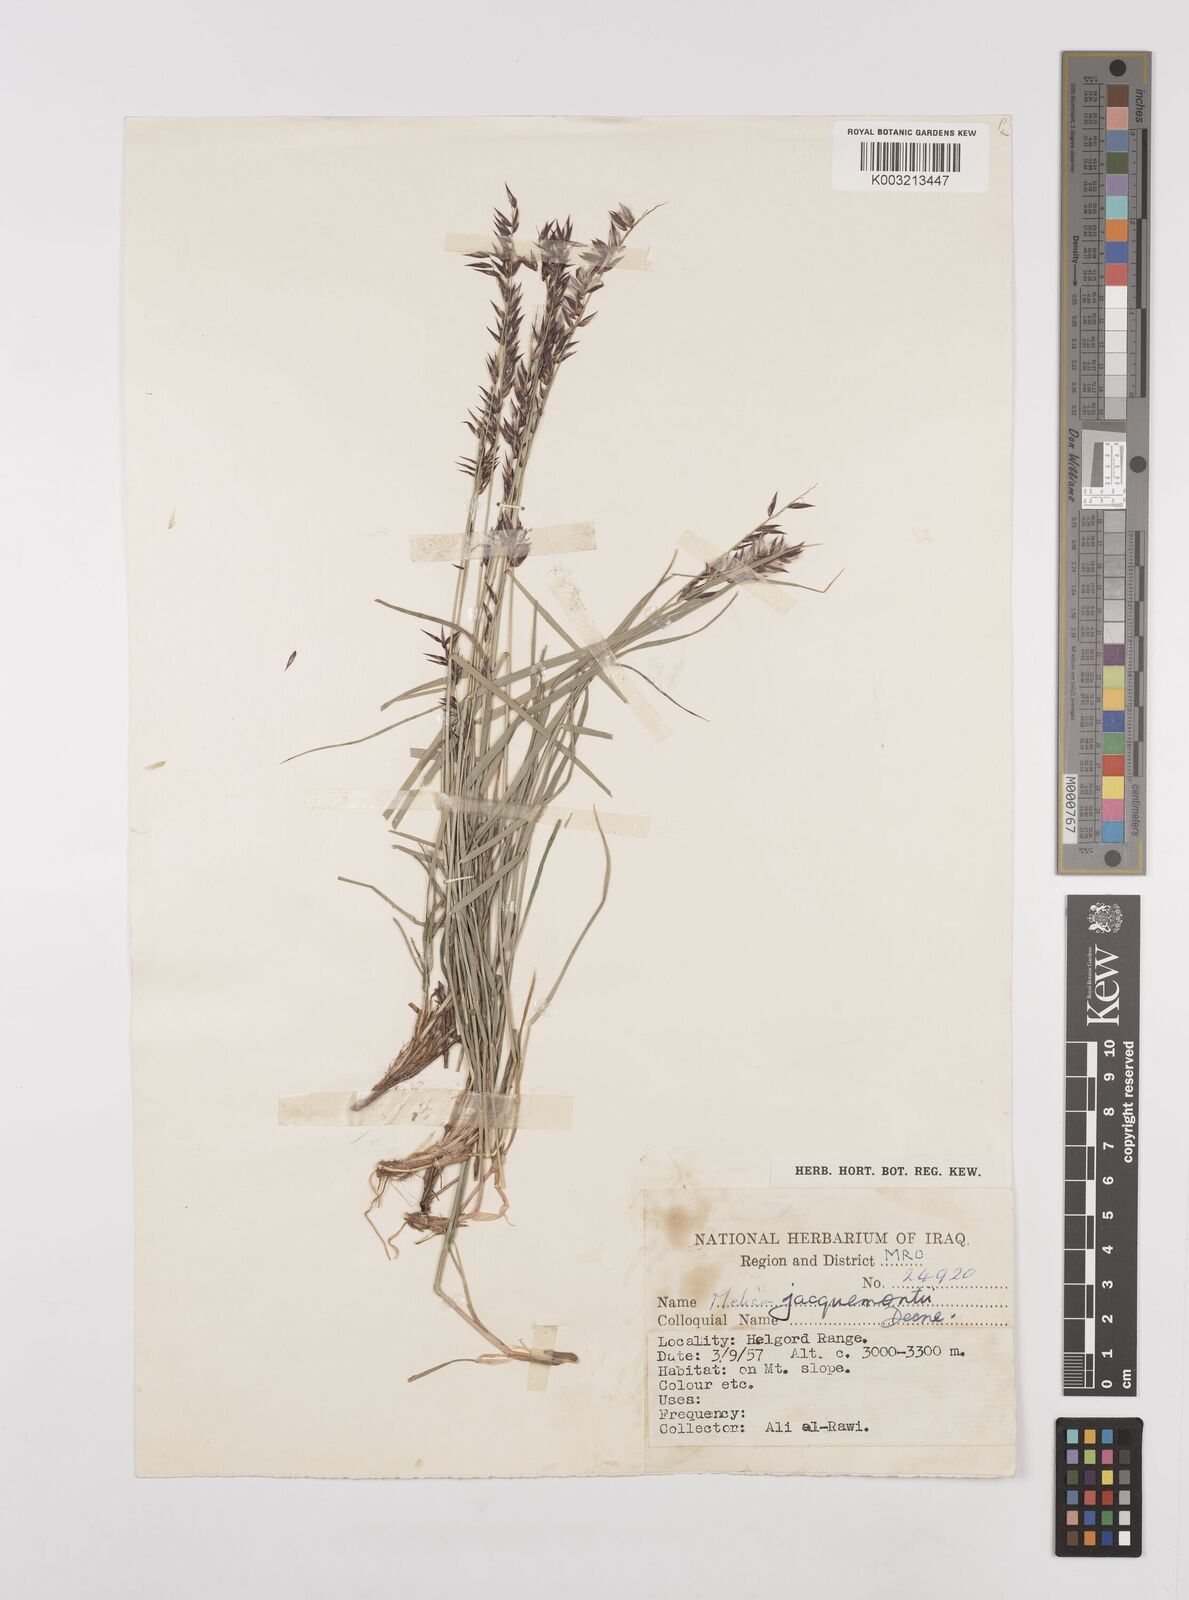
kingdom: Plantae
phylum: Tracheophyta
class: Liliopsida
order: Poales
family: Poaceae
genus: Melica
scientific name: Melica persica
